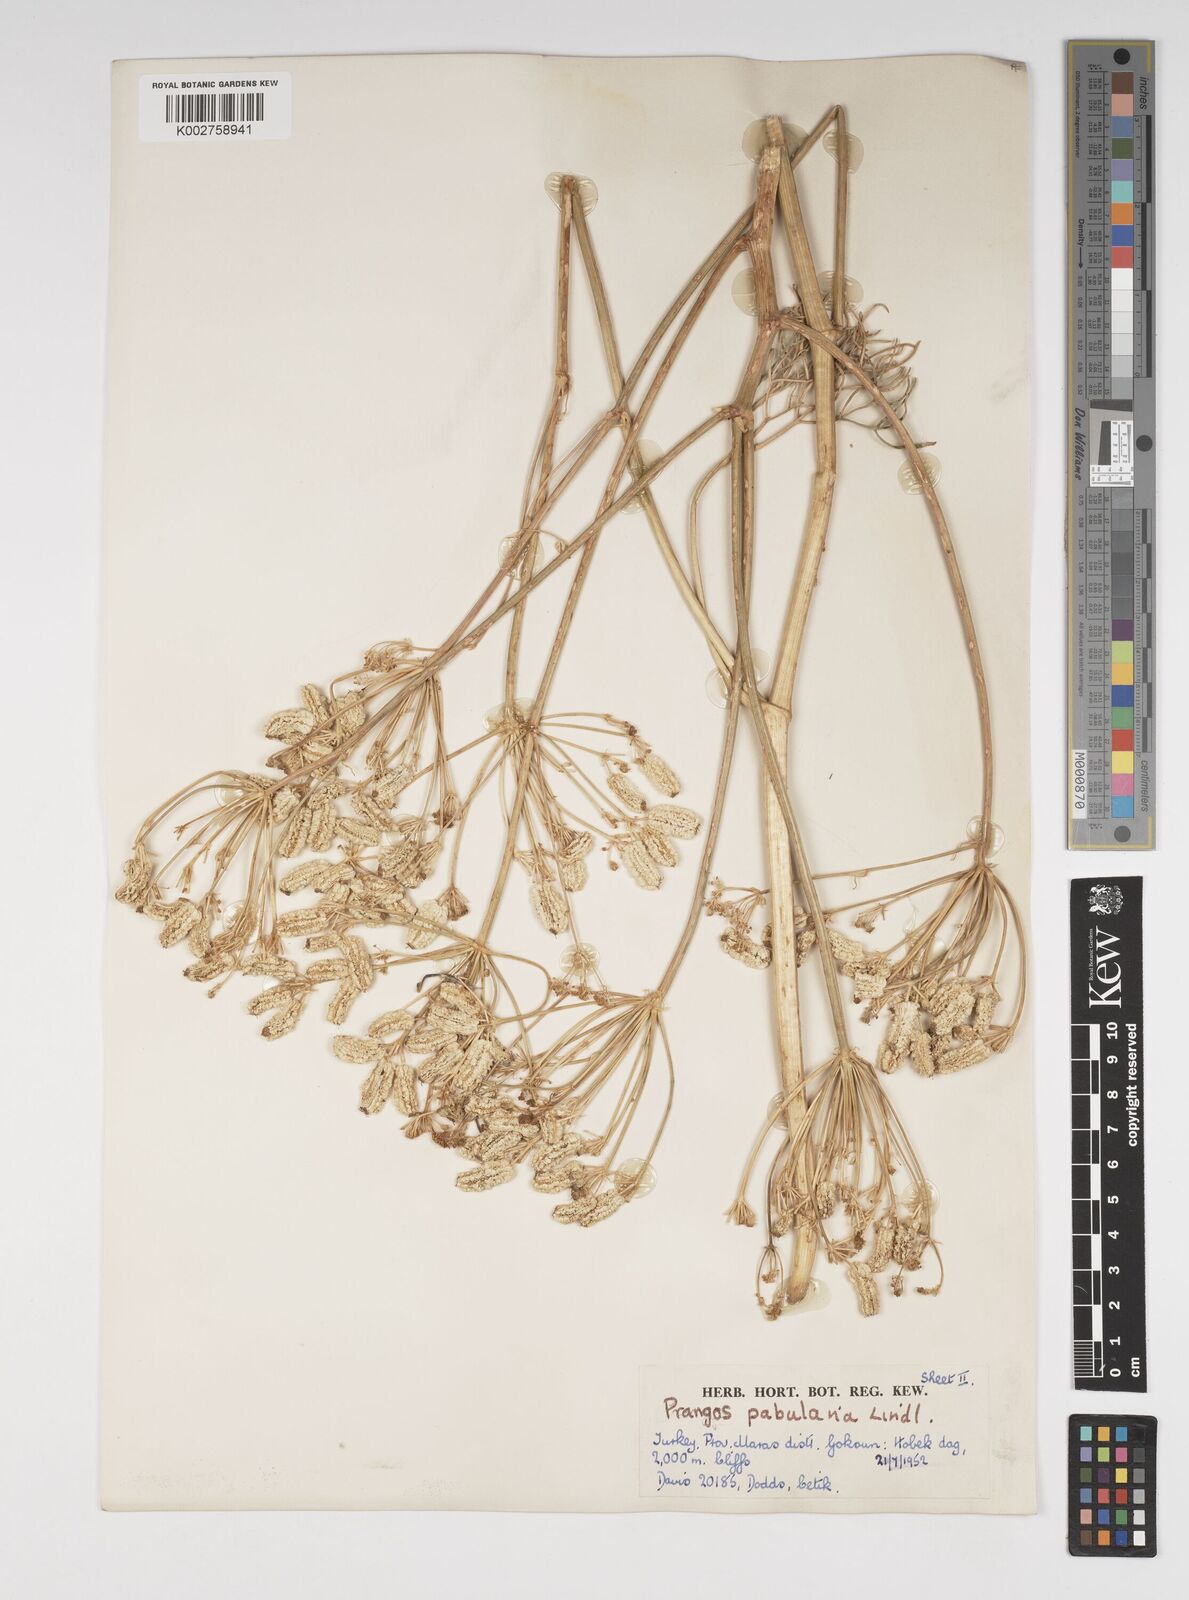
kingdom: Plantae
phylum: Tracheophyta
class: Magnoliopsida
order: Apiales
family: Apiaceae
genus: Prangos
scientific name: Prangos pabularia
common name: Yugan
